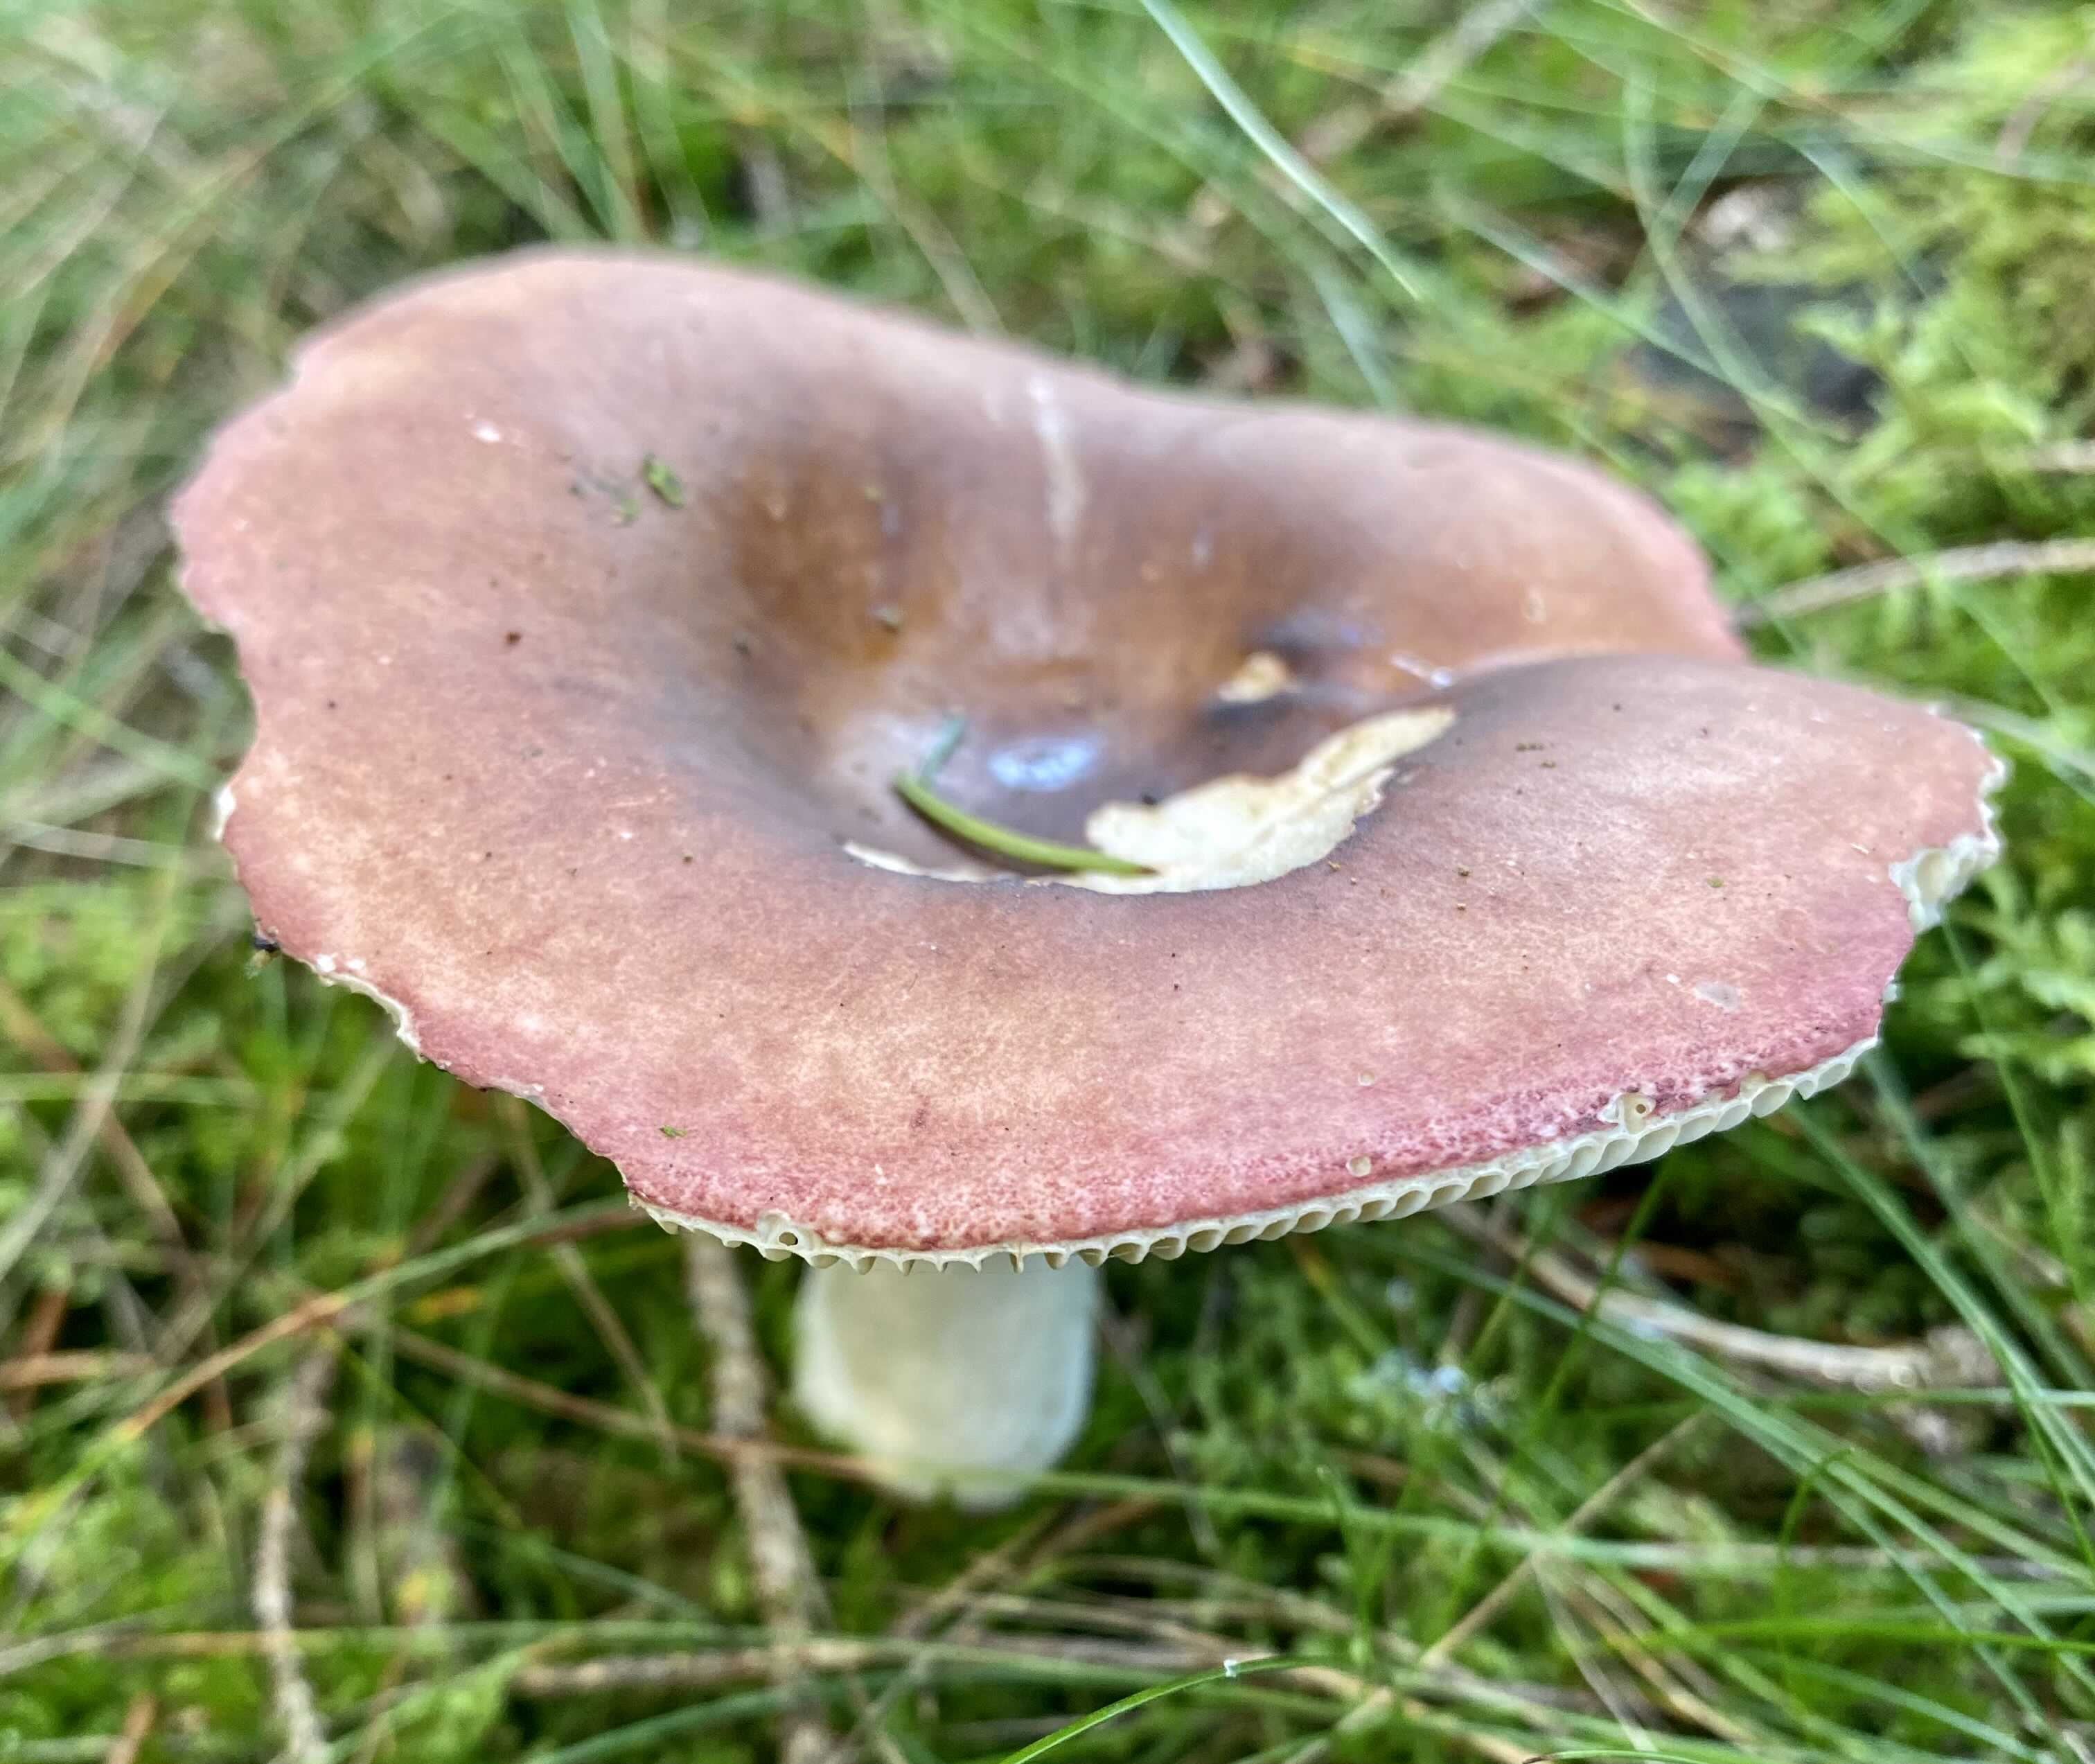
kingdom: Fungi
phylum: Basidiomycota
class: Agaricomycetes
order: Russulales
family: Russulaceae
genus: Russula
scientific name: Russula depallens
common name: falmende skørhat
